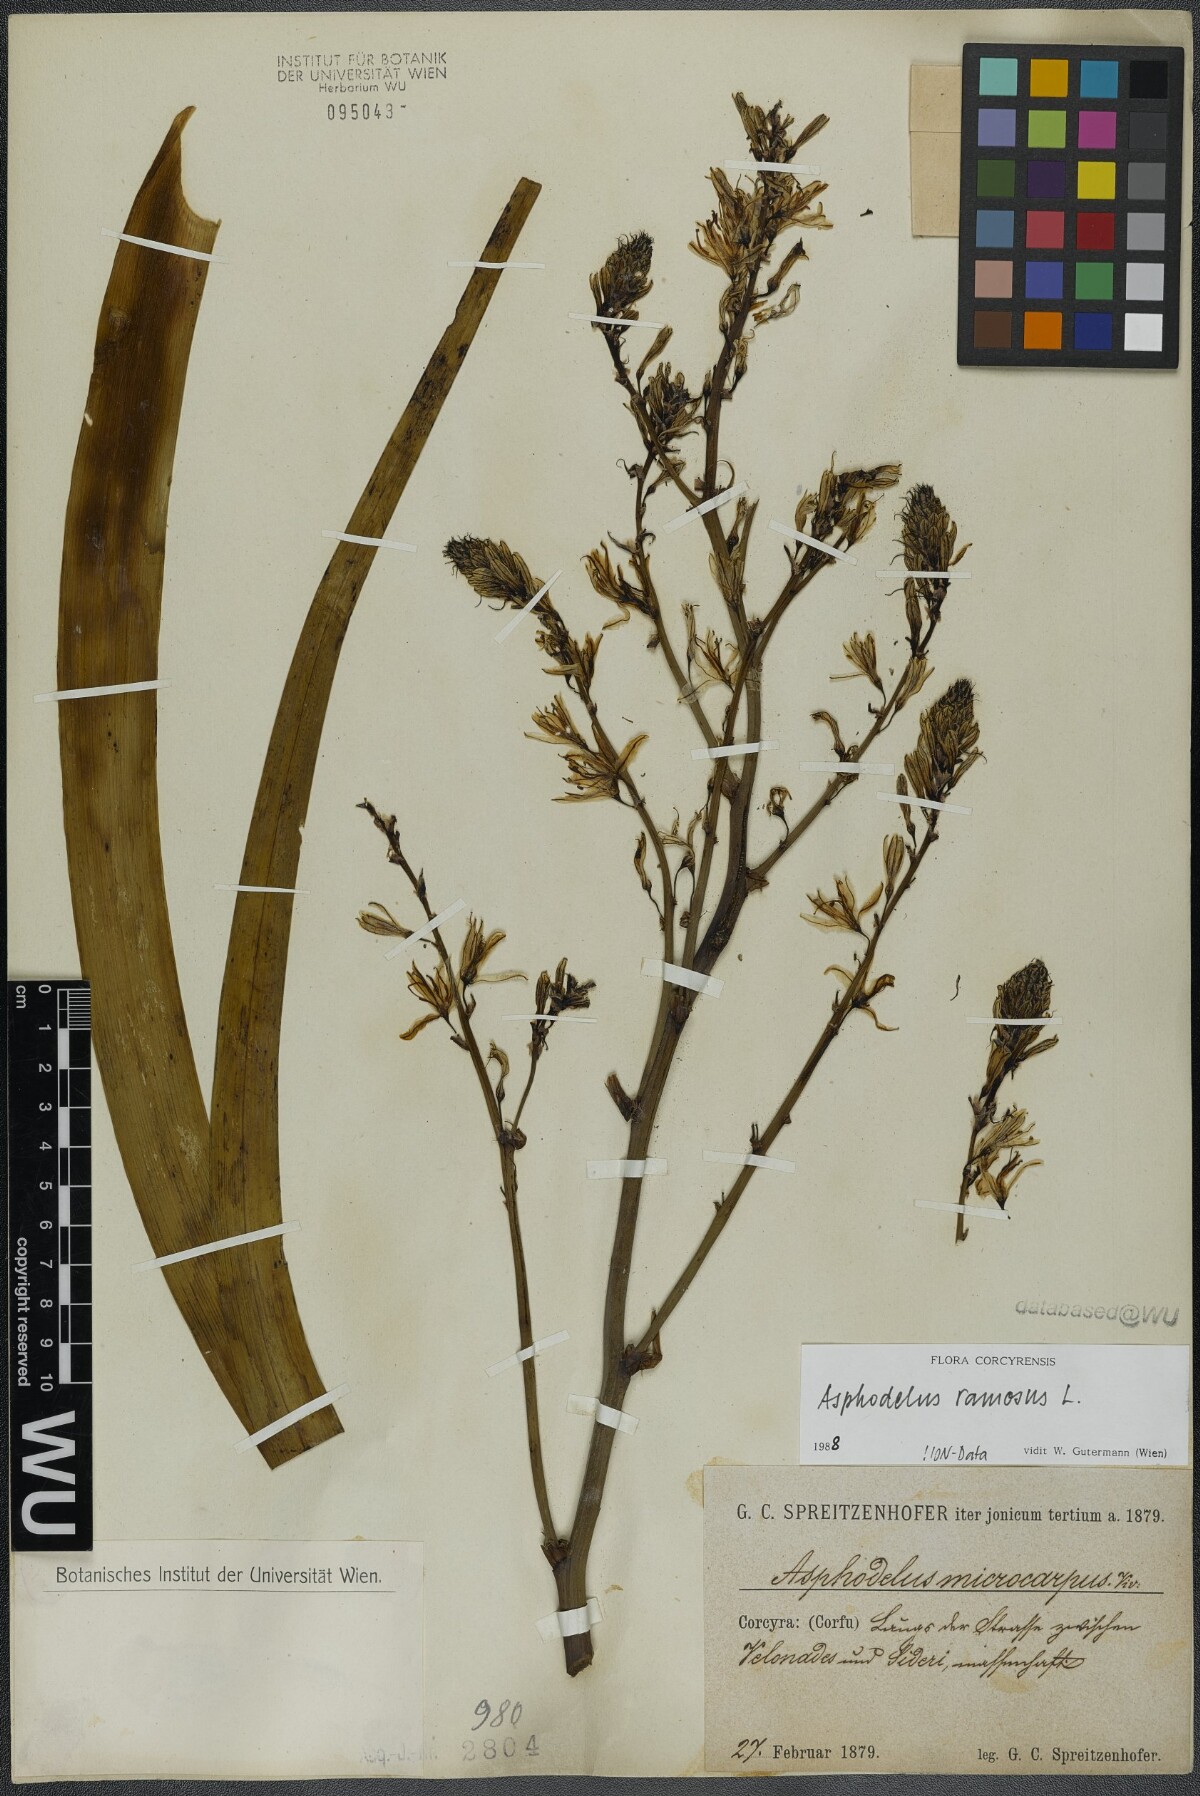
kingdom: Plantae
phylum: Tracheophyta
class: Liliopsida
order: Asparagales
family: Asphodelaceae
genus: Asphodelus
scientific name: Asphodelus ramosus
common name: Silverrod
